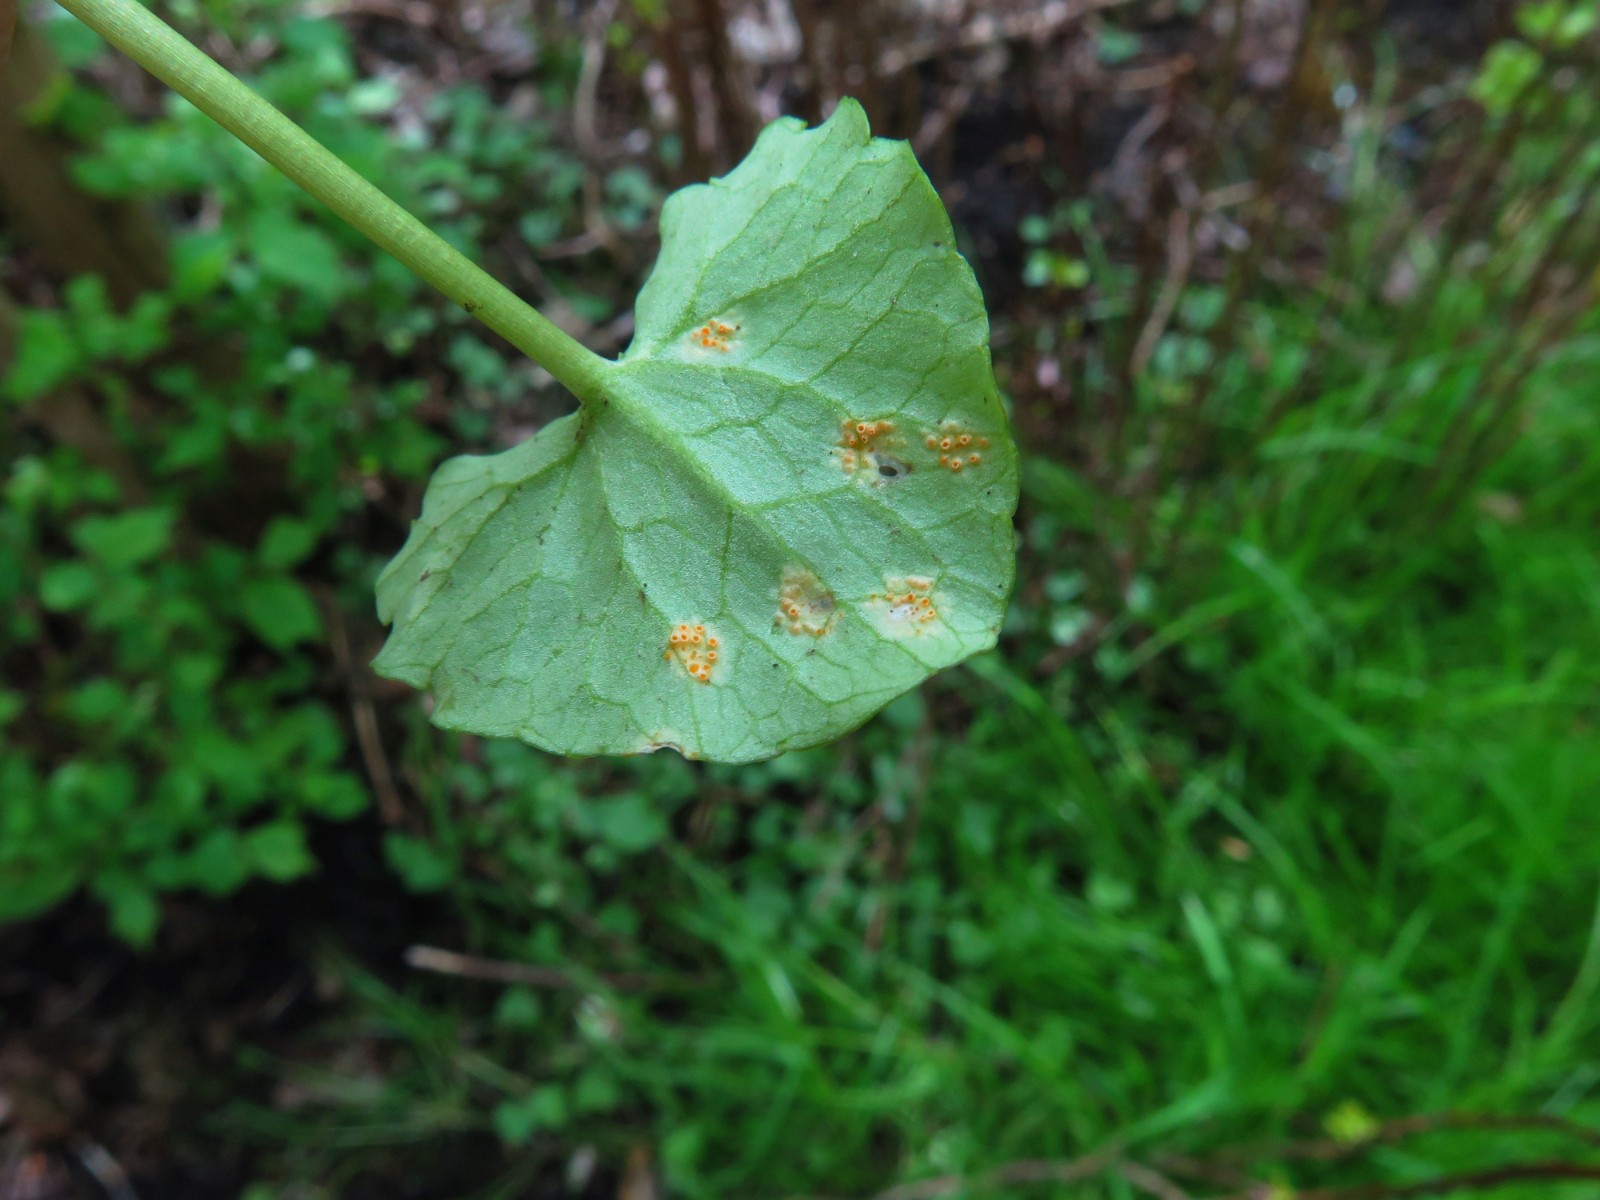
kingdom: Fungi
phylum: Basidiomycota
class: Pucciniomycetes
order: Pucciniales
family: Pucciniaceae
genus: Uromyces
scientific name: Uromyces dactylidis
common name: ranunkel-encellerust
